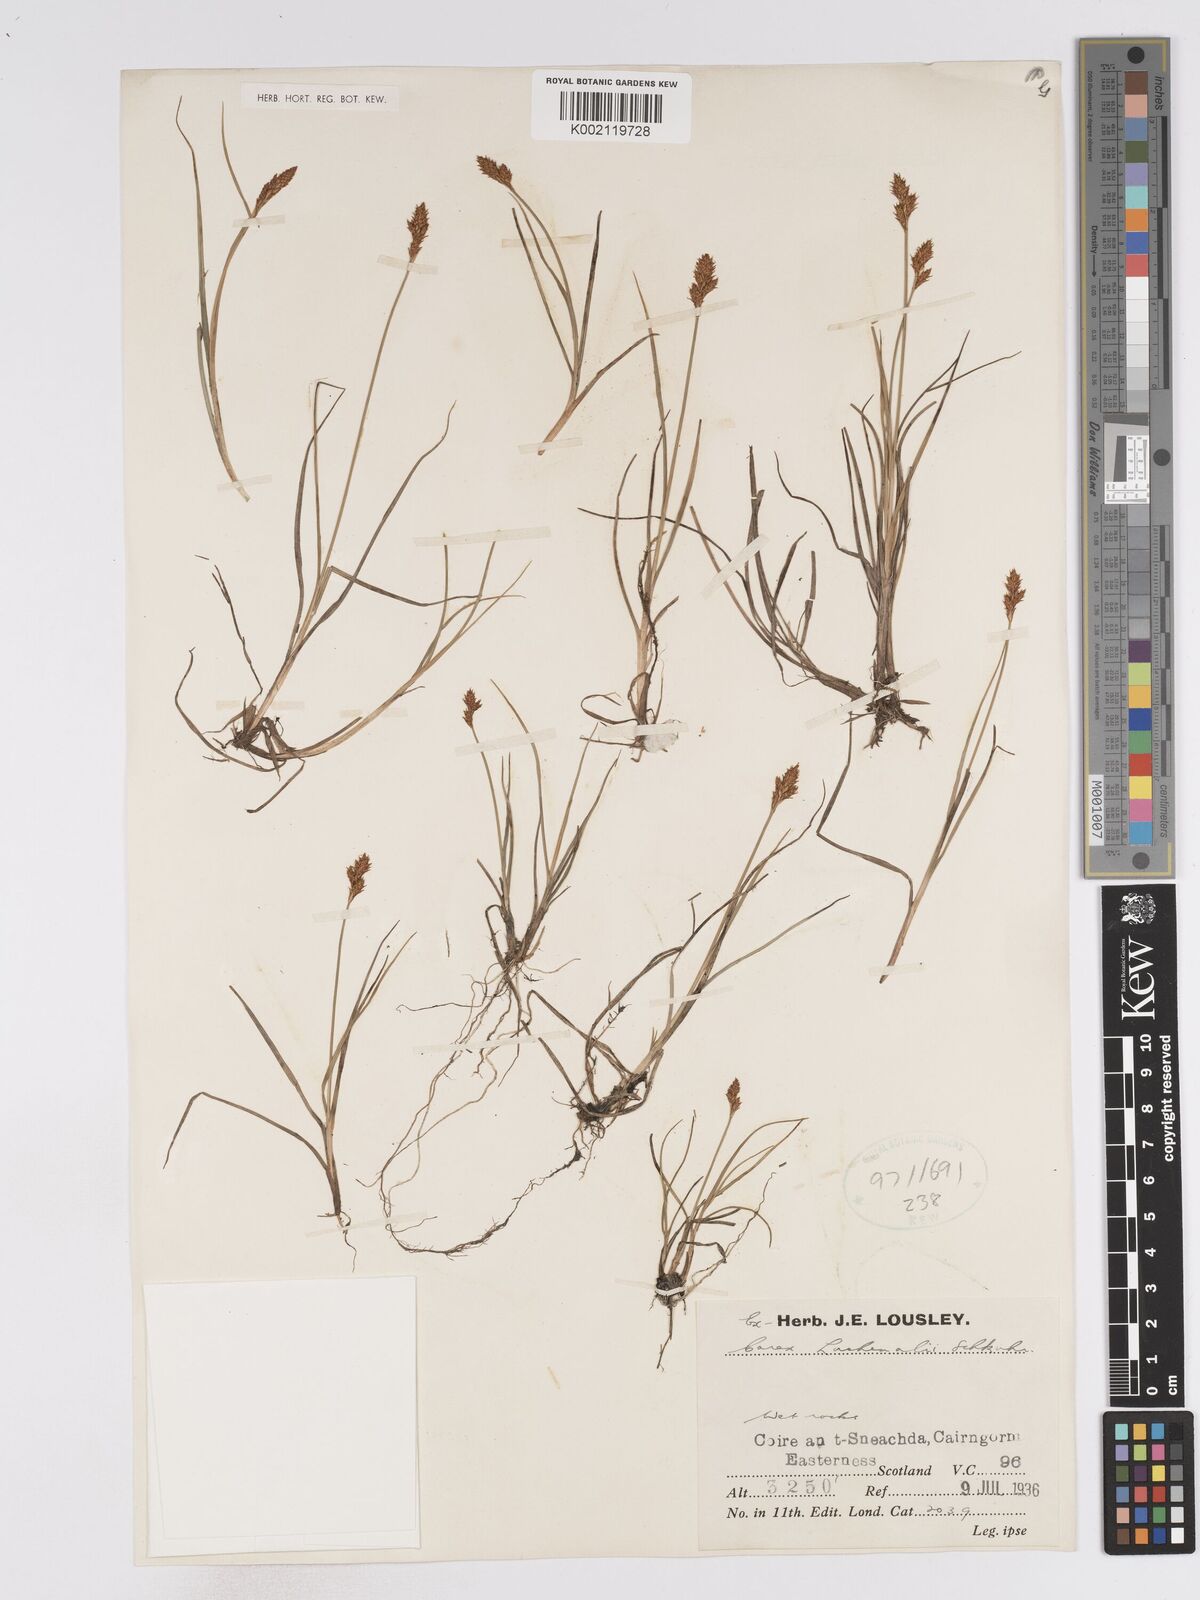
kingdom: Plantae
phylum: Tracheophyta
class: Liliopsida
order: Poales
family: Cyperaceae
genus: Carex
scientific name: Carex helvola
